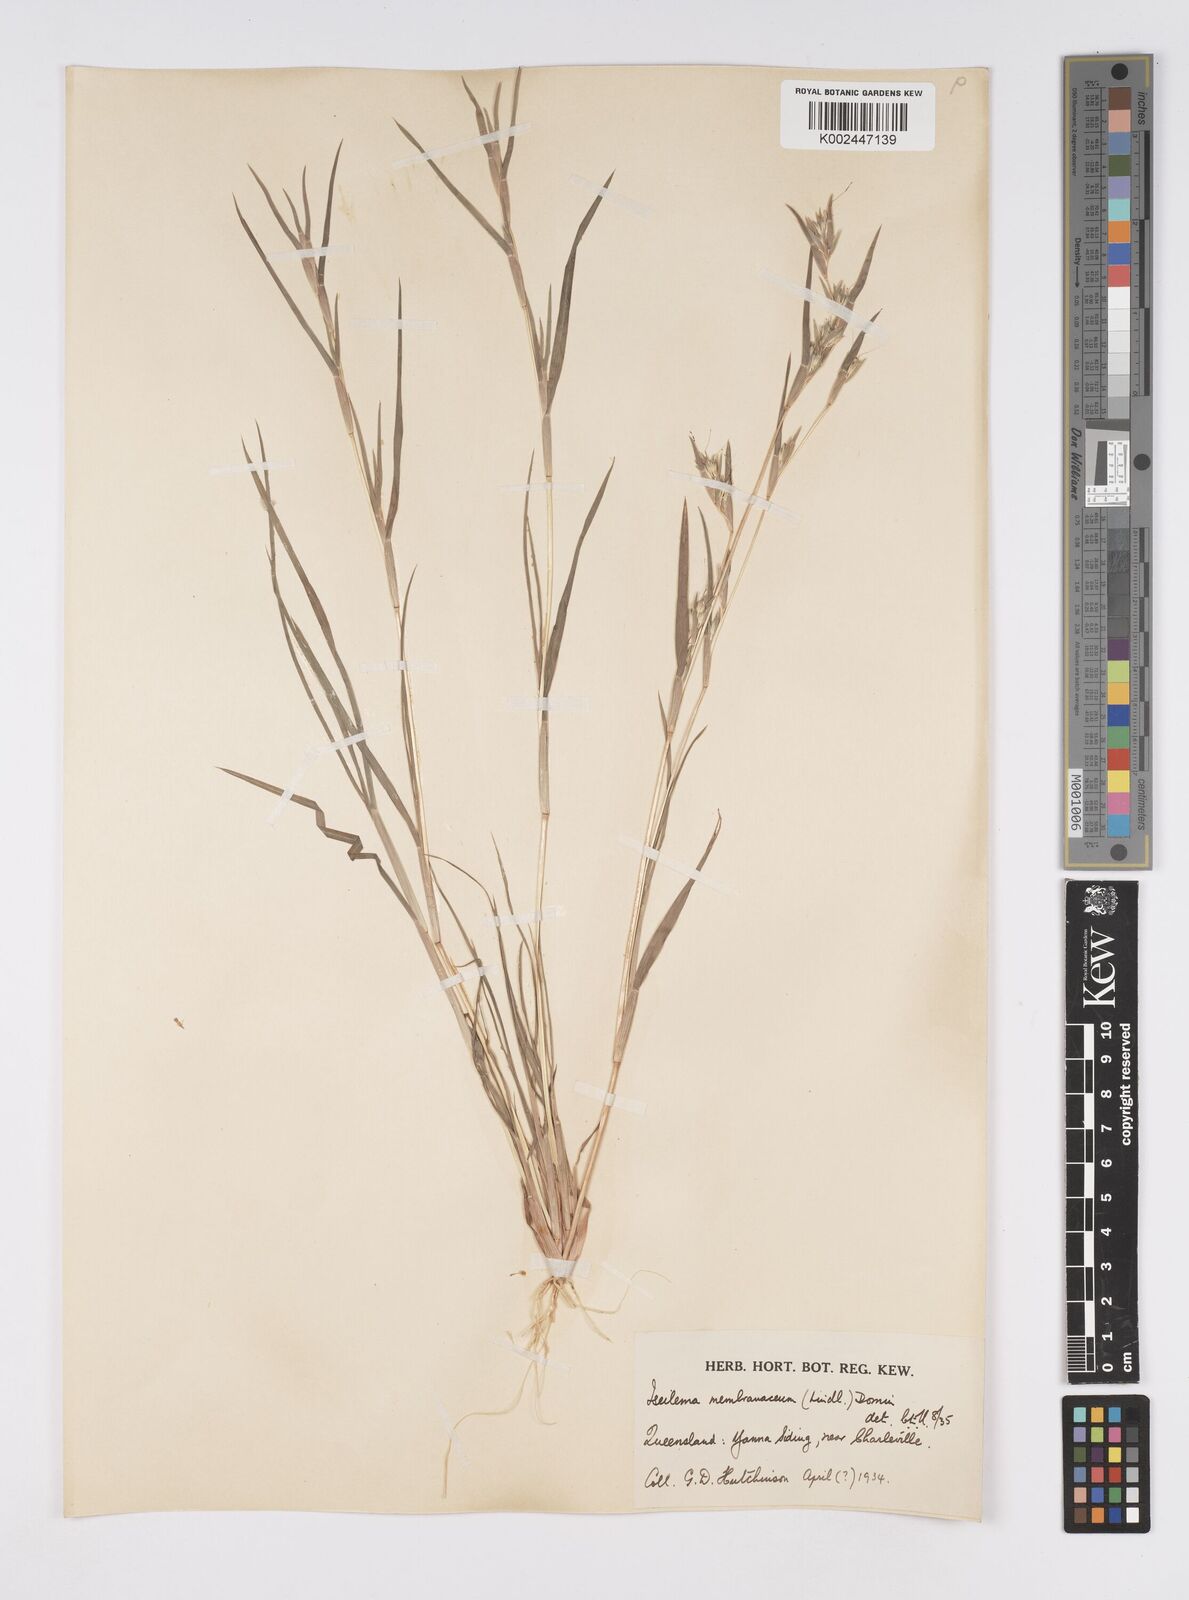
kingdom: Plantae
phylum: Tracheophyta
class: Liliopsida
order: Poales
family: Poaceae
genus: Iseilema
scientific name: Iseilema membranaceum
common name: Small flinders grass
